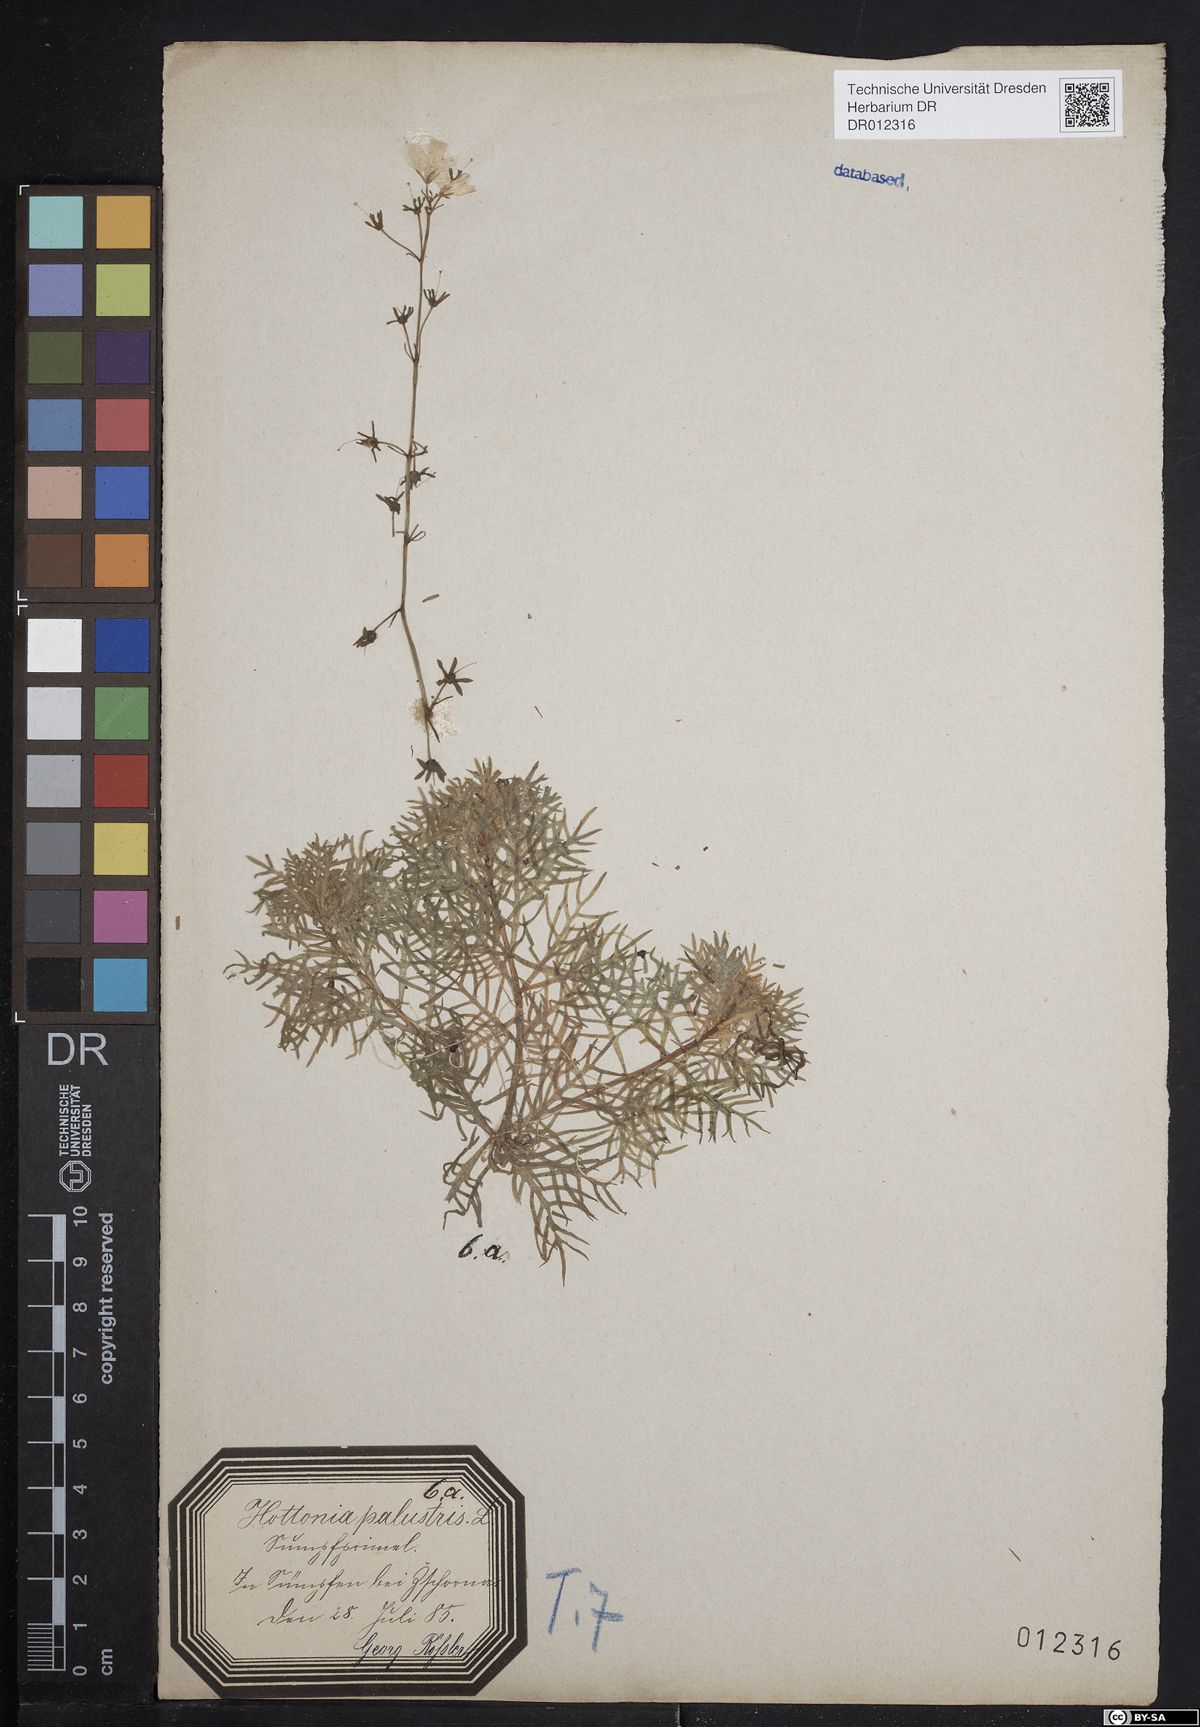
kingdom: Plantae
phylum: Tracheophyta
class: Magnoliopsida
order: Ericales
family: Primulaceae
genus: Hottonia
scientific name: Hottonia palustris
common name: Water-violet
